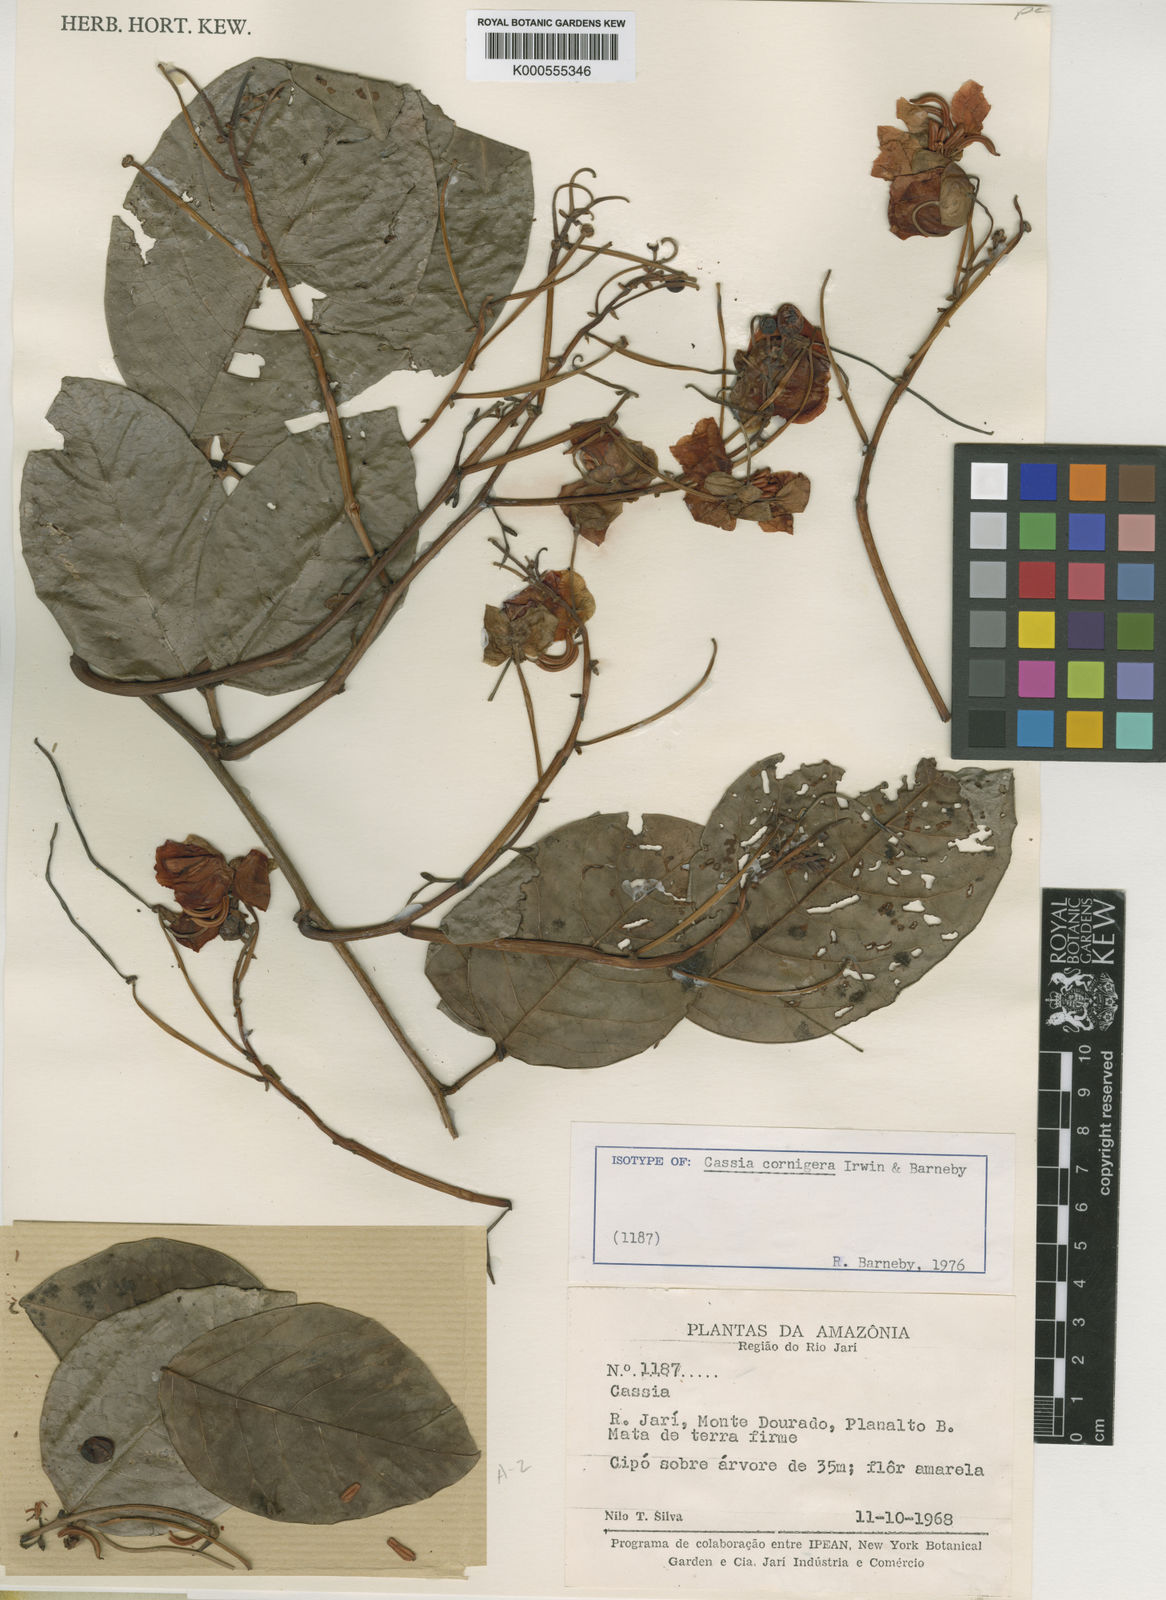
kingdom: Plantae
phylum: Tracheophyta
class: Magnoliopsida
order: Fabales
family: Fabaceae
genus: Senna
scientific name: Senna corifolia
